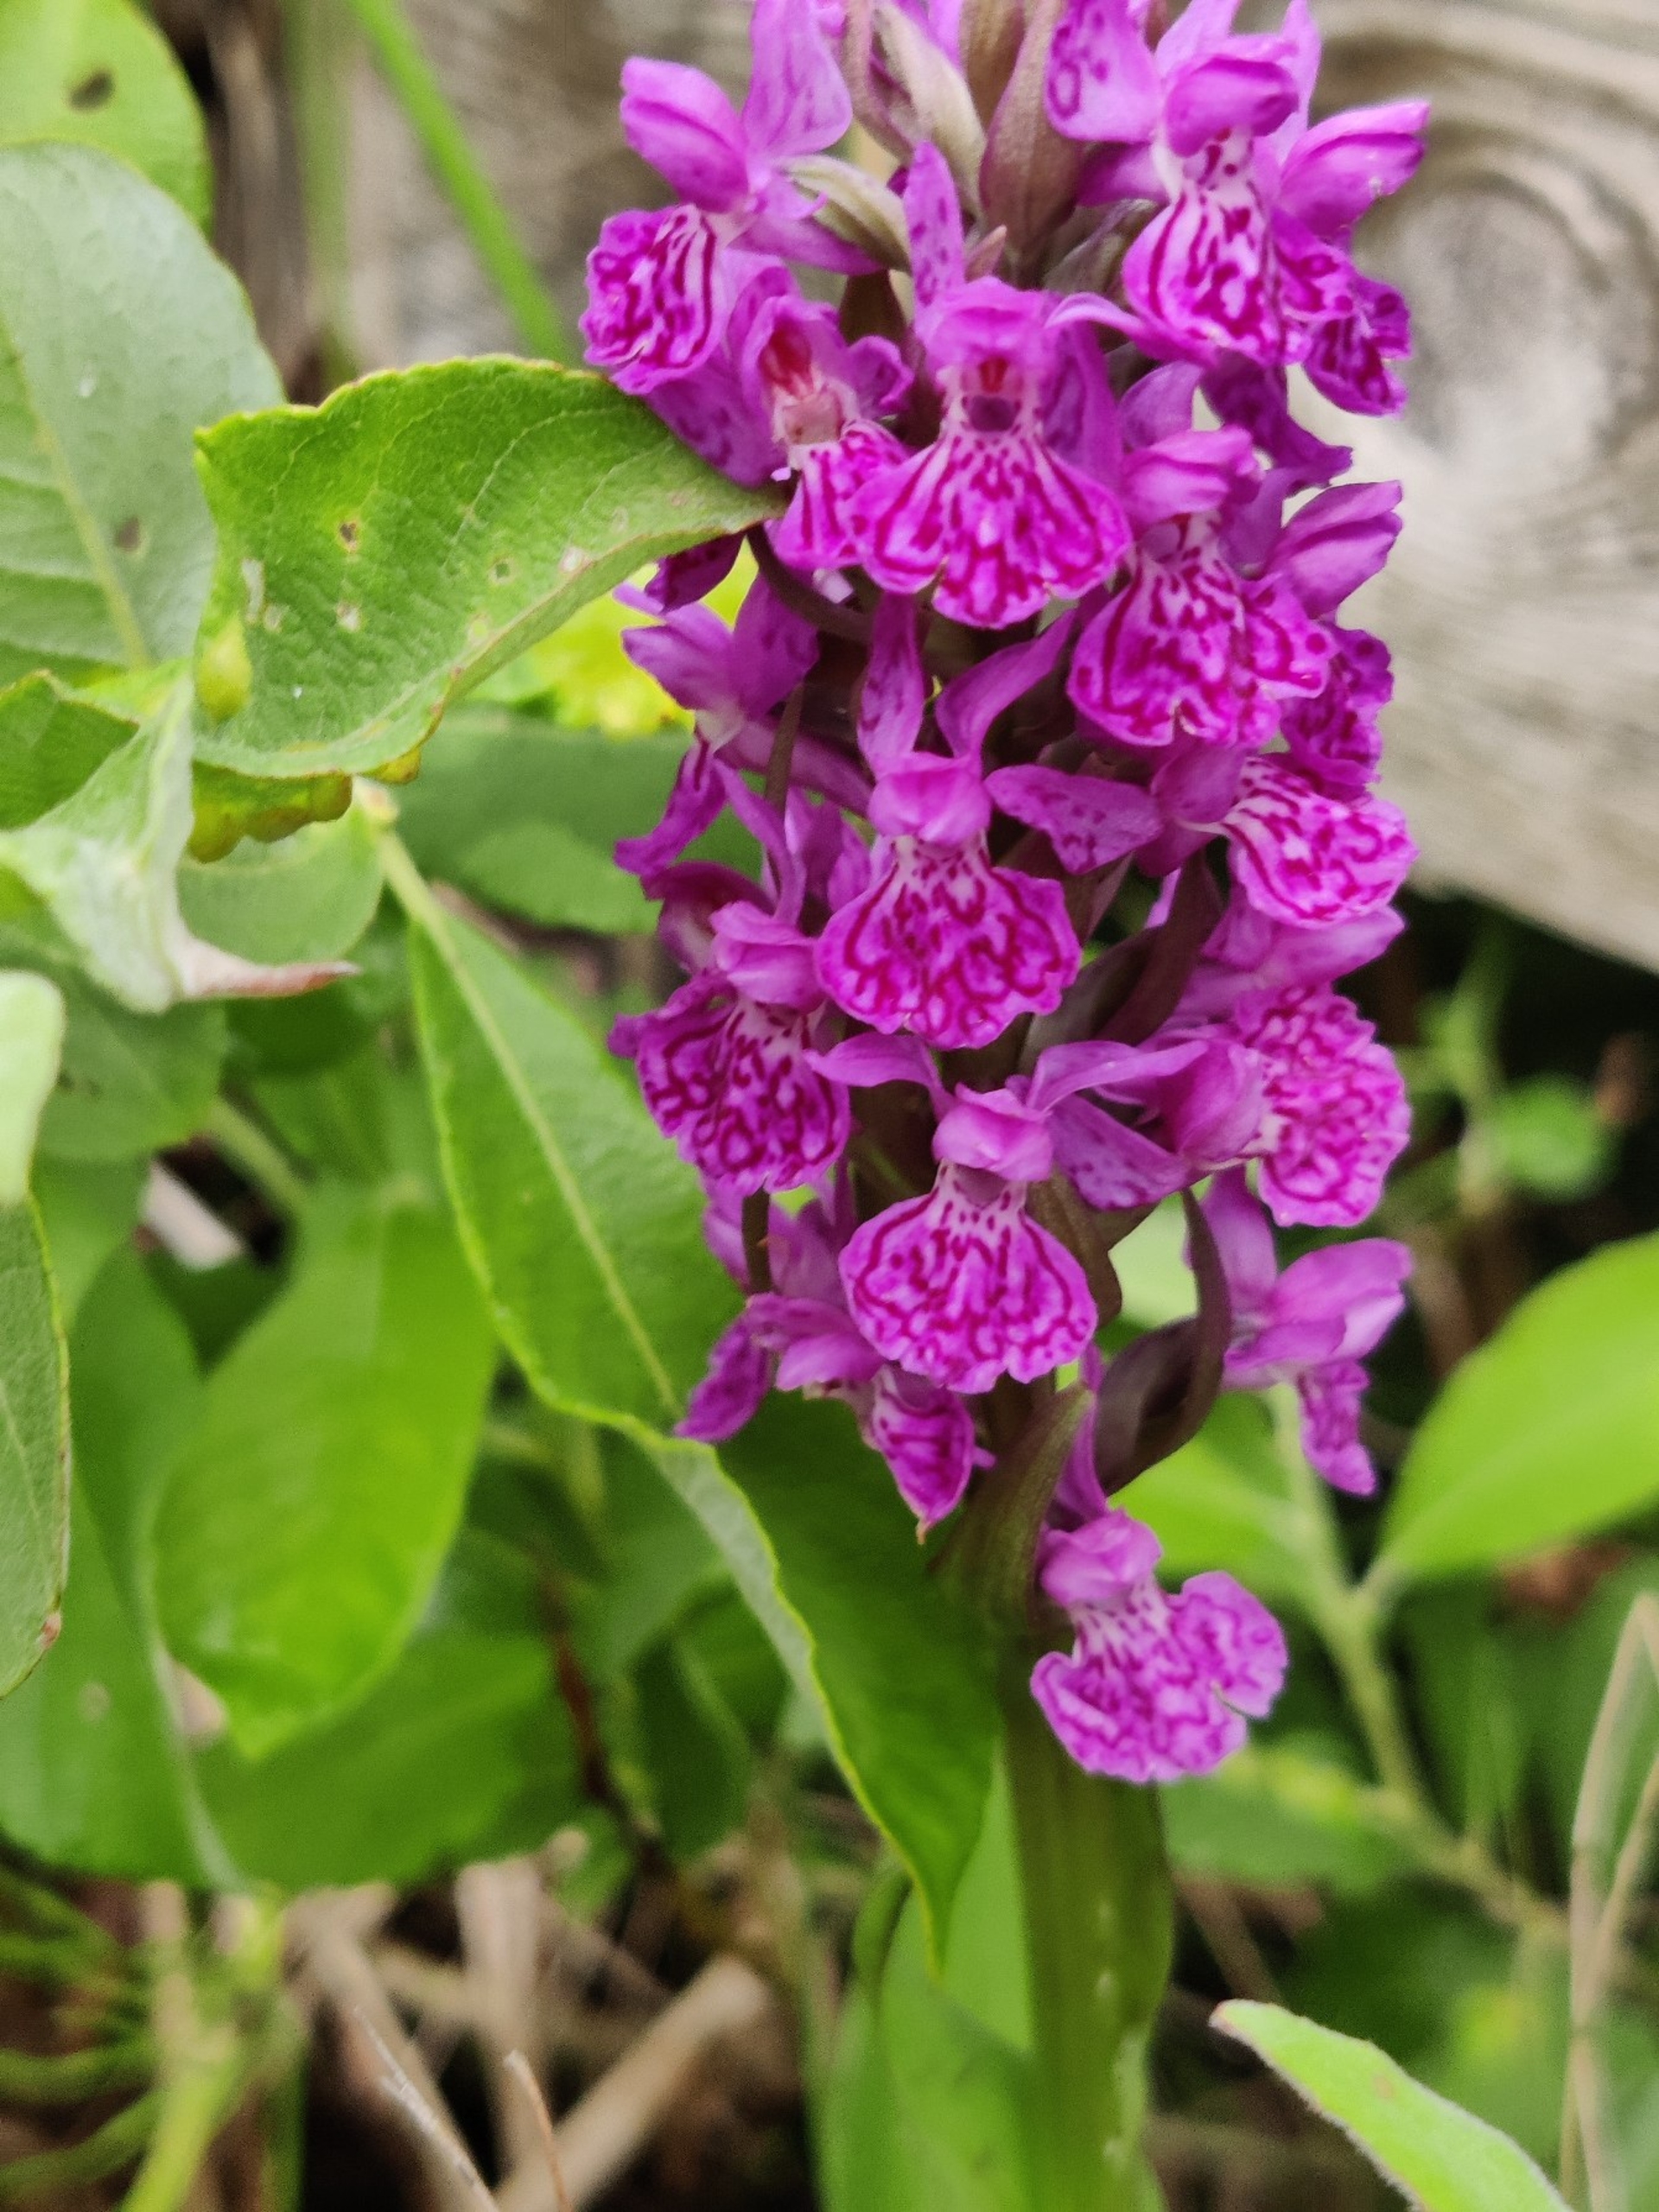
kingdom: Plantae
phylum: Tracheophyta
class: Liliopsida
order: Asparagales
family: Orchidaceae
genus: Dactylorhiza
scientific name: Dactylorhiza majalis
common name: Purpur-gøgeurt
